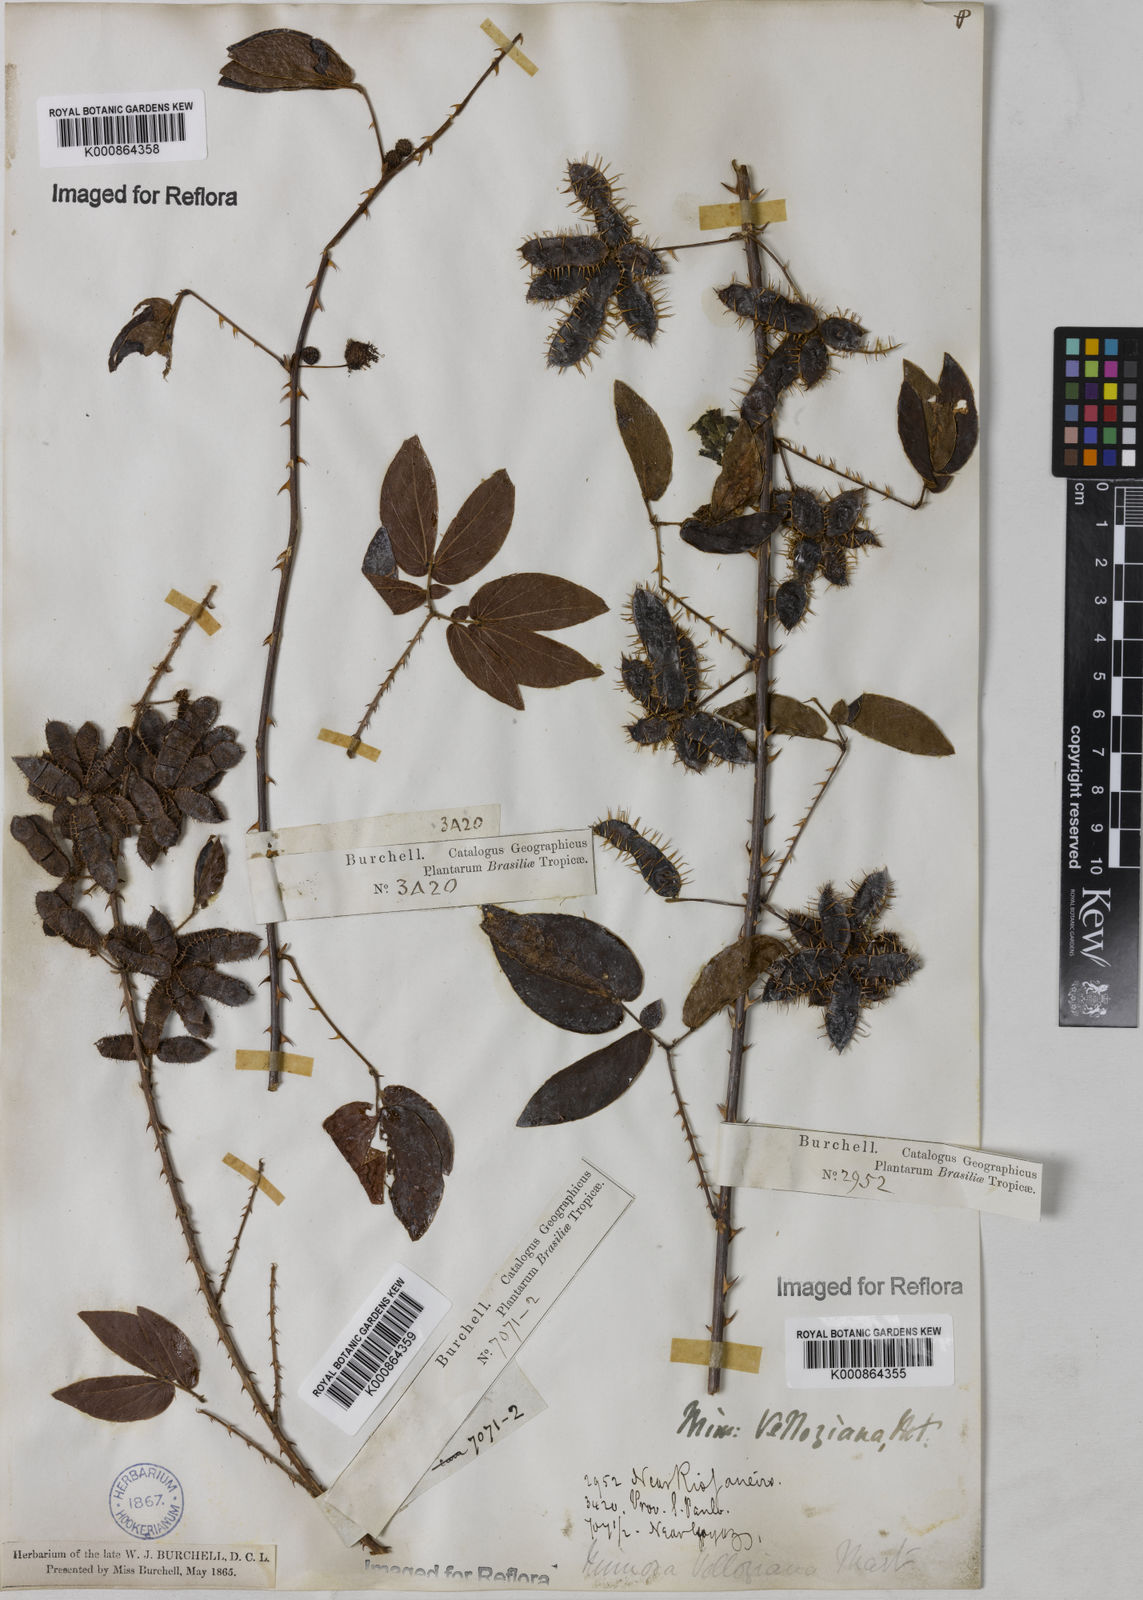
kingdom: Plantae
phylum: Tracheophyta
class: Magnoliopsida
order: Fabales
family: Fabaceae
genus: Mimosa
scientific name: Mimosa velloziana
